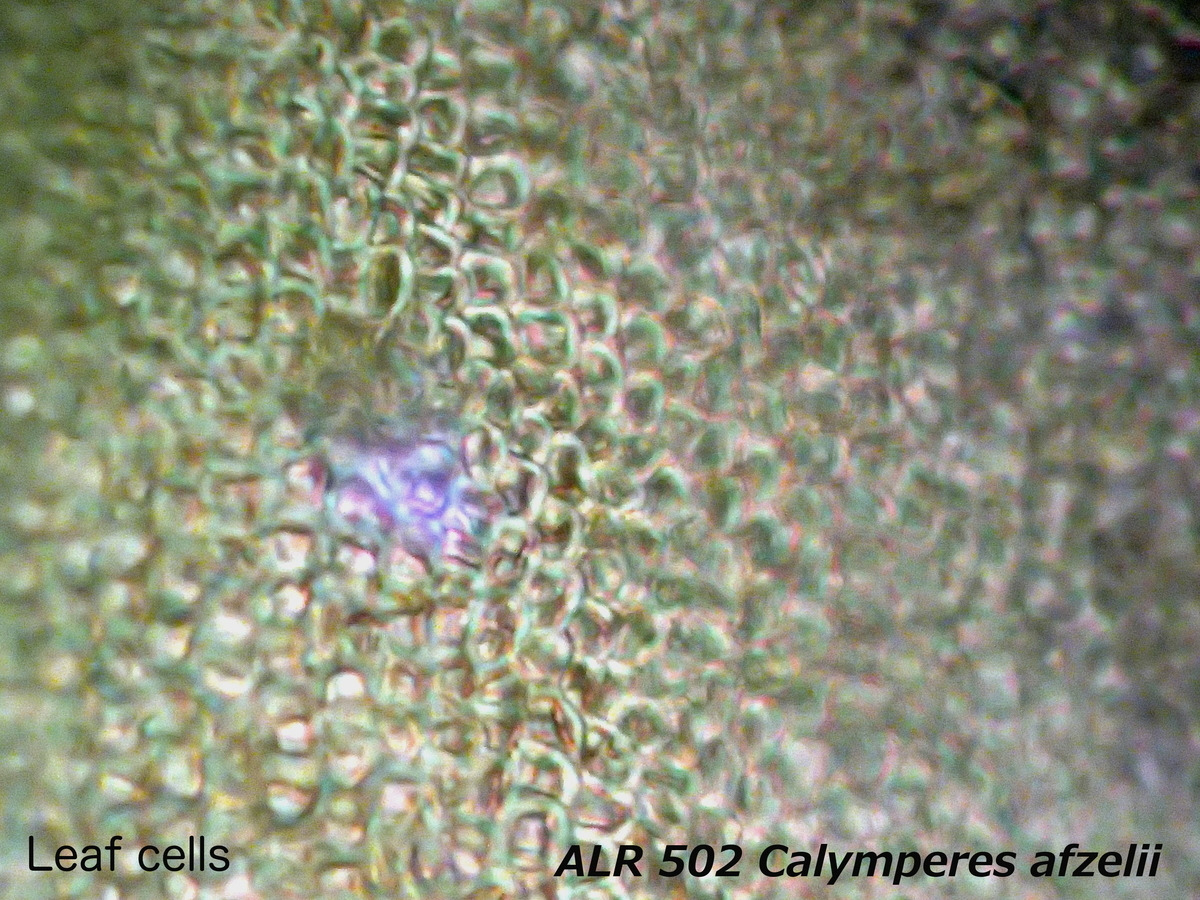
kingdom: Plantae
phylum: Bryophyta
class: Bryopsida
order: Dicranales
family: Calymperaceae
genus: Calymperes
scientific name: Calymperes afzelii
